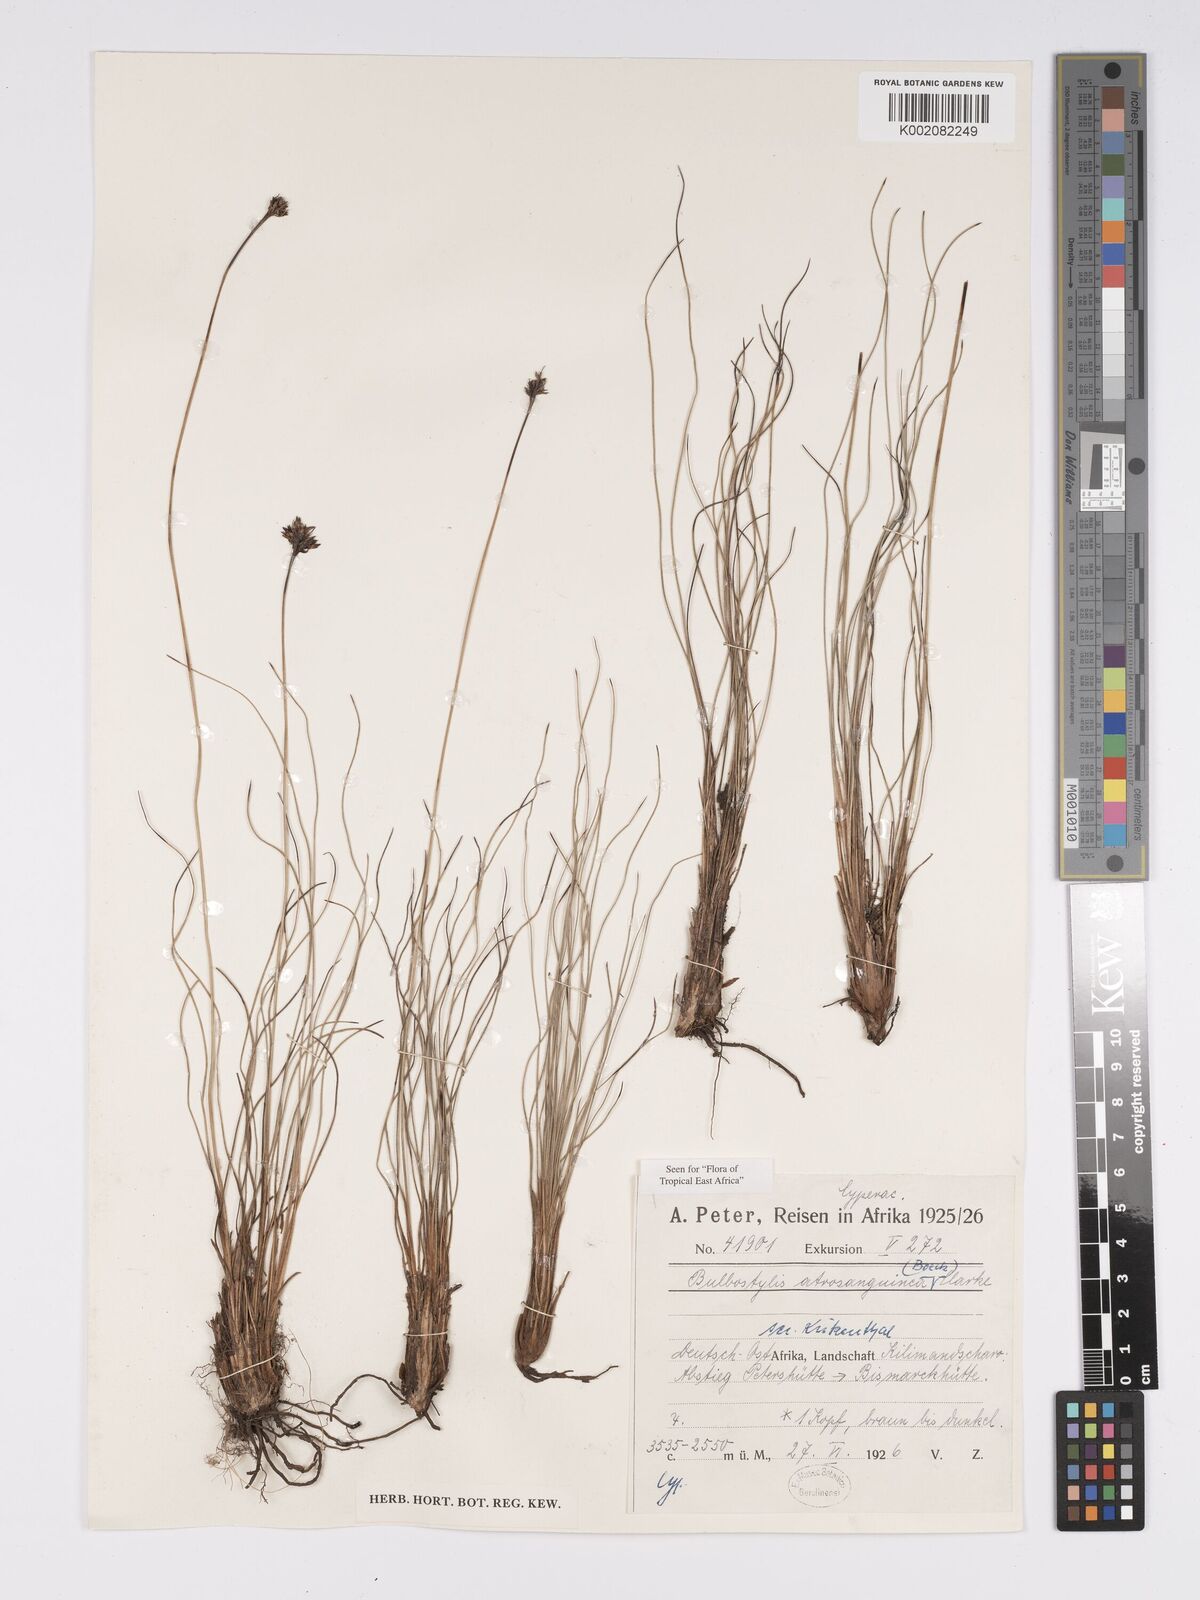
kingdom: Plantae
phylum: Tracheophyta
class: Liliopsida
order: Poales
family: Cyperaceae
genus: Bulbostylis
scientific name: Bulbostylis atrosanguinea
